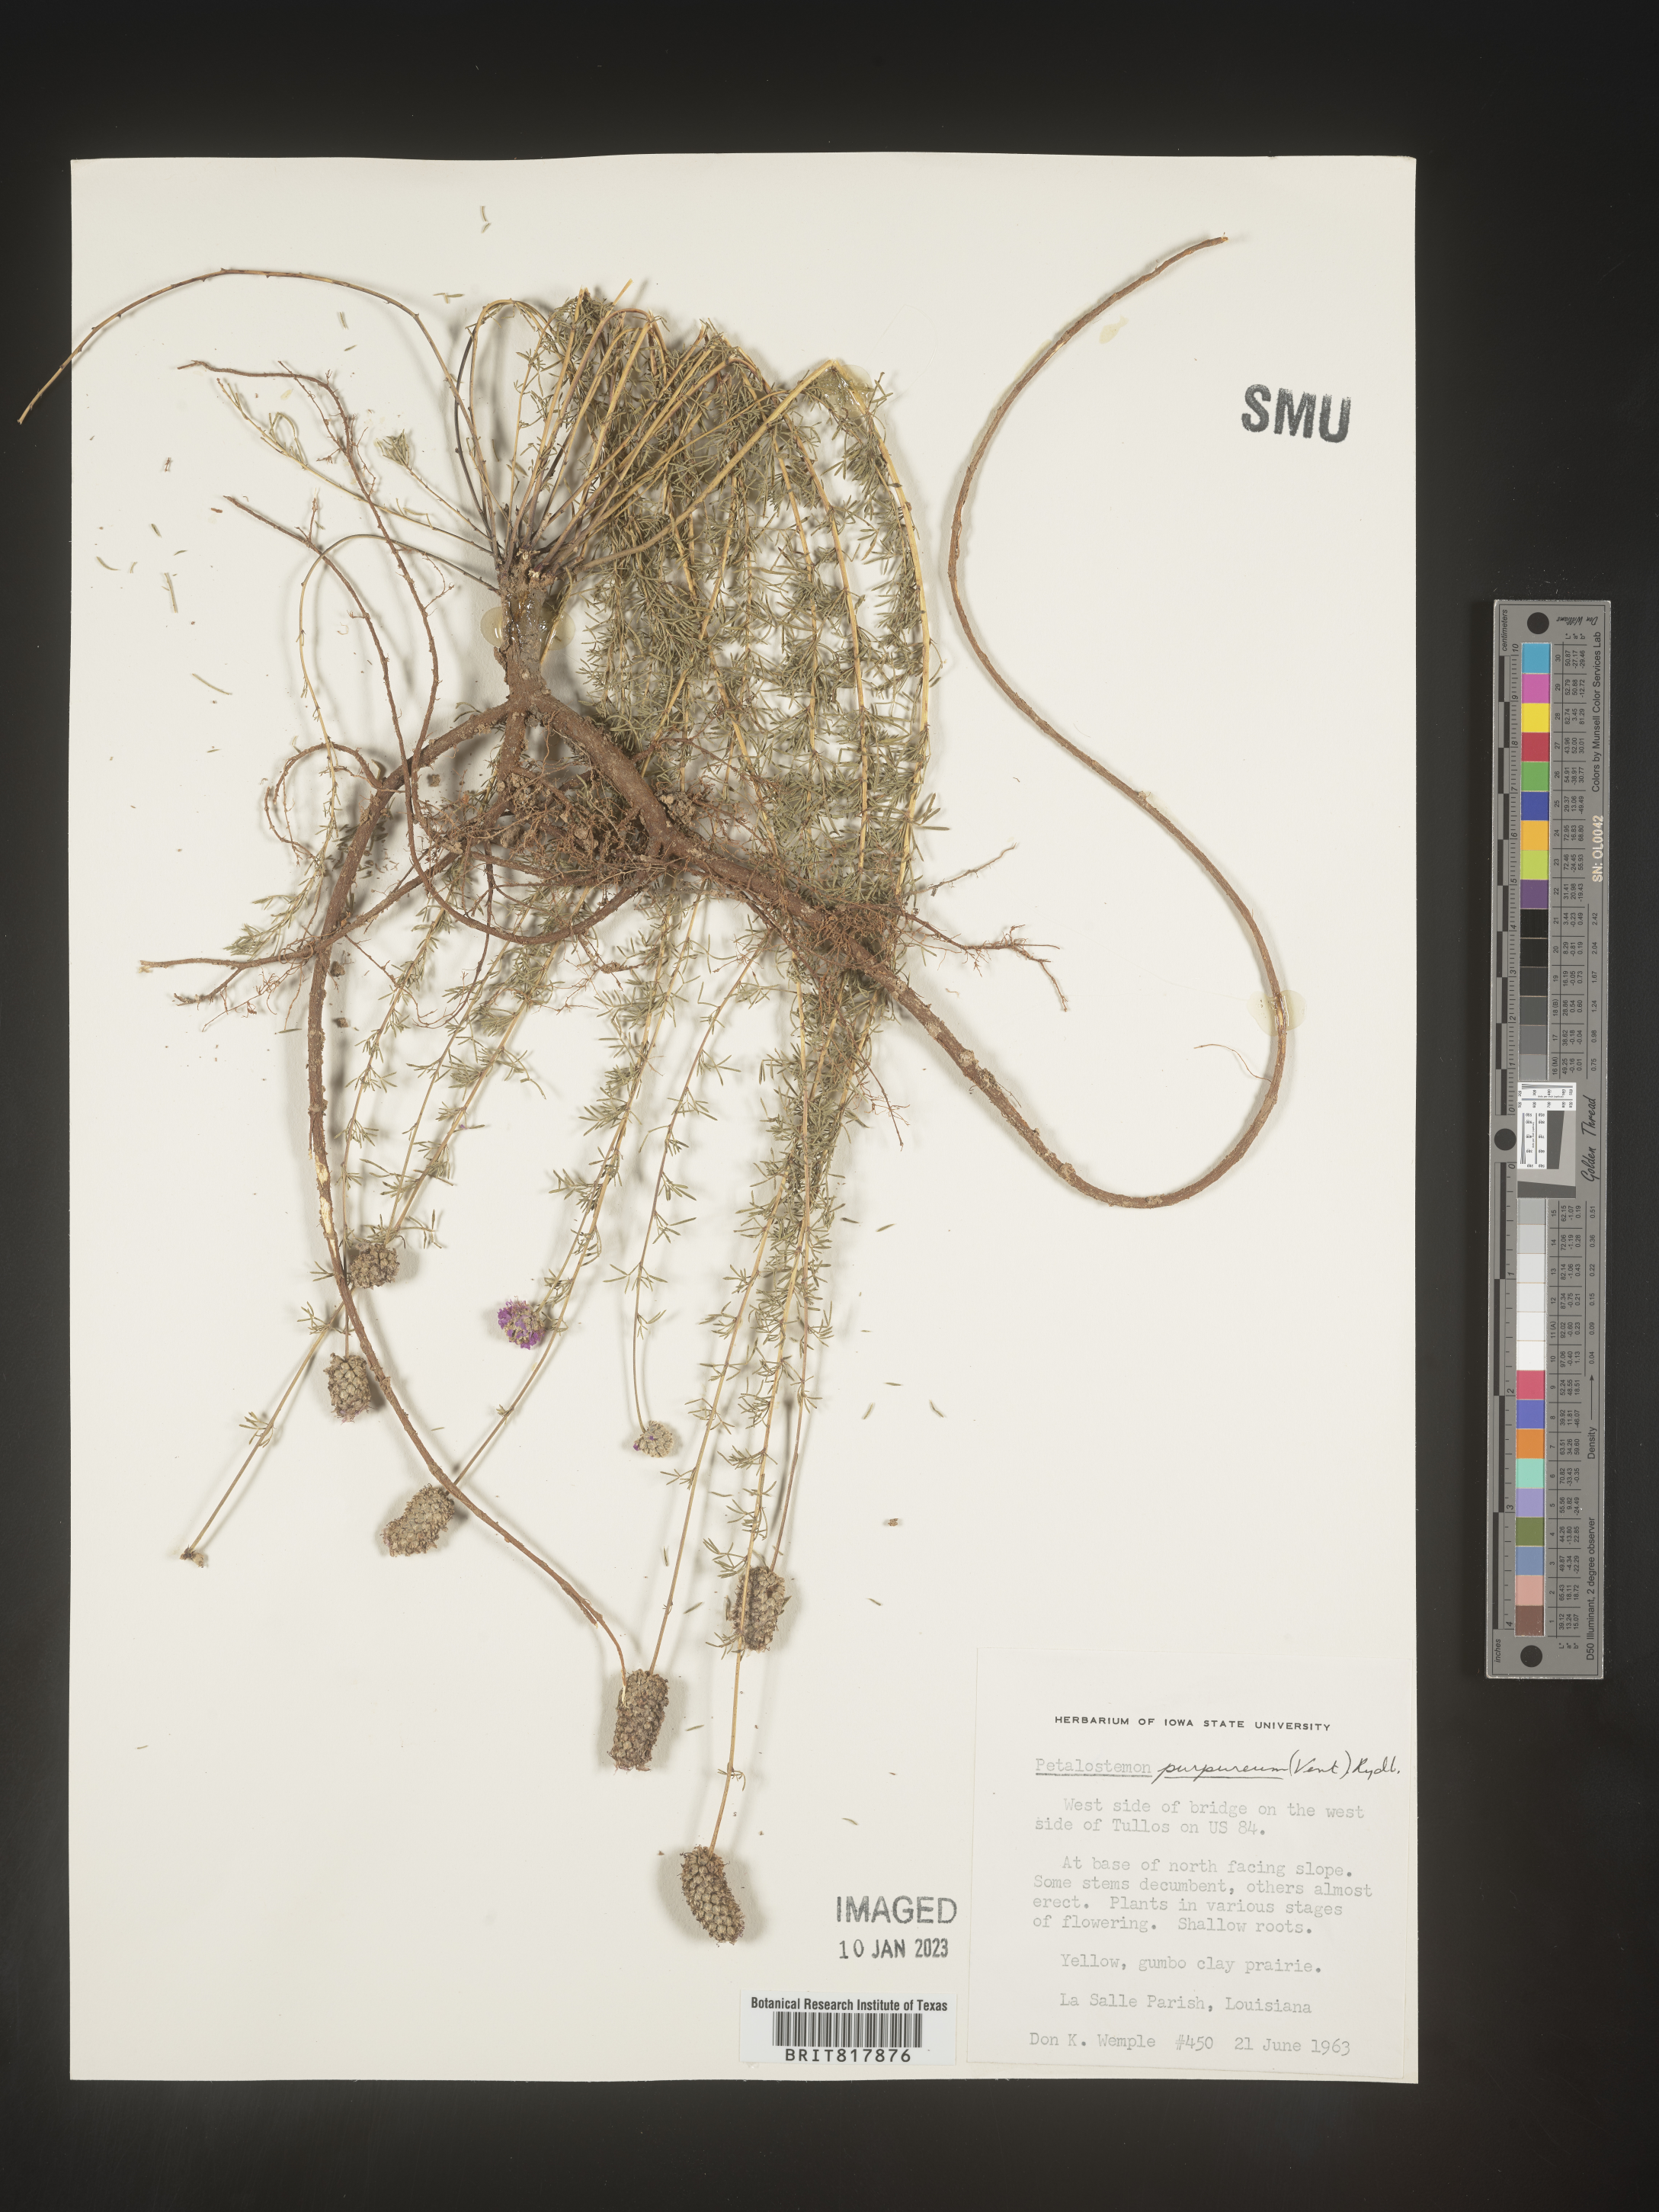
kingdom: Plantae
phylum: Tracheophyta
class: Magnoliopsida
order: Fabales
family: Fabaceae
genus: Dalea
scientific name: Dalea purpurea
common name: Purple prairie-clover
